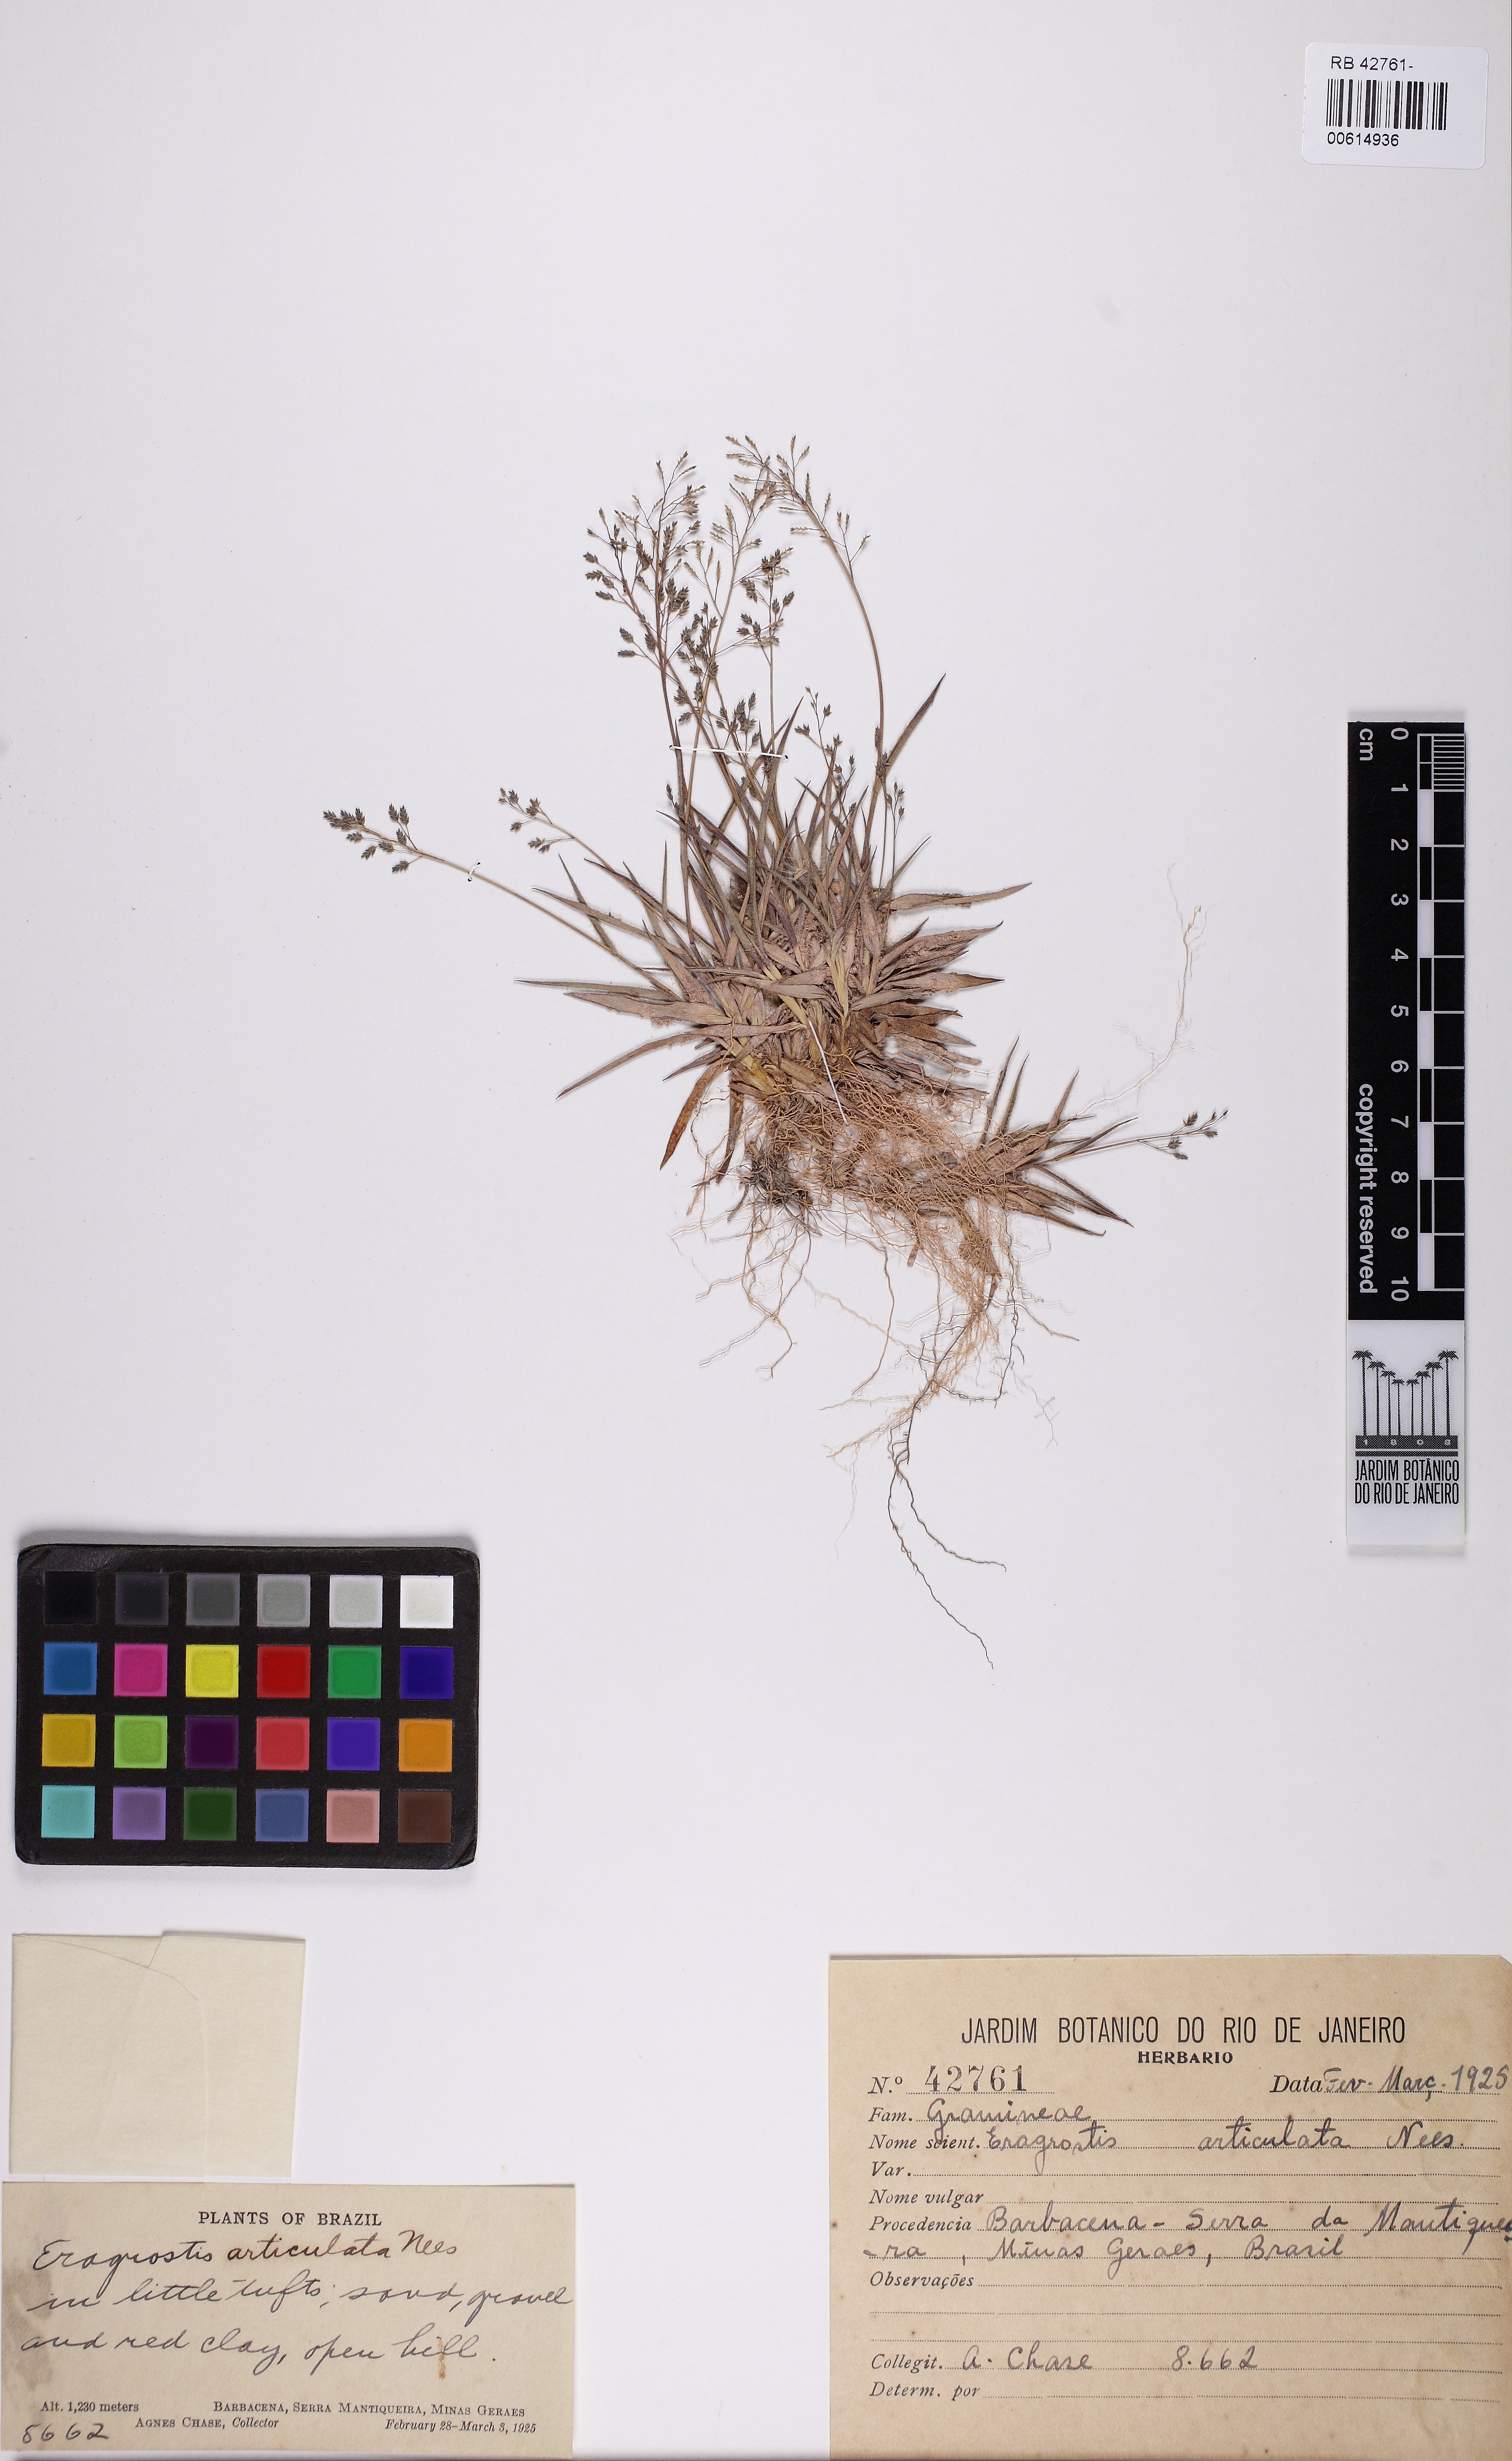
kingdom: Plantae
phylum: Tracheophyta
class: Liliopsida
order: Poales
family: Poaceae
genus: Eragrostis
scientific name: Eragrostis articulata
